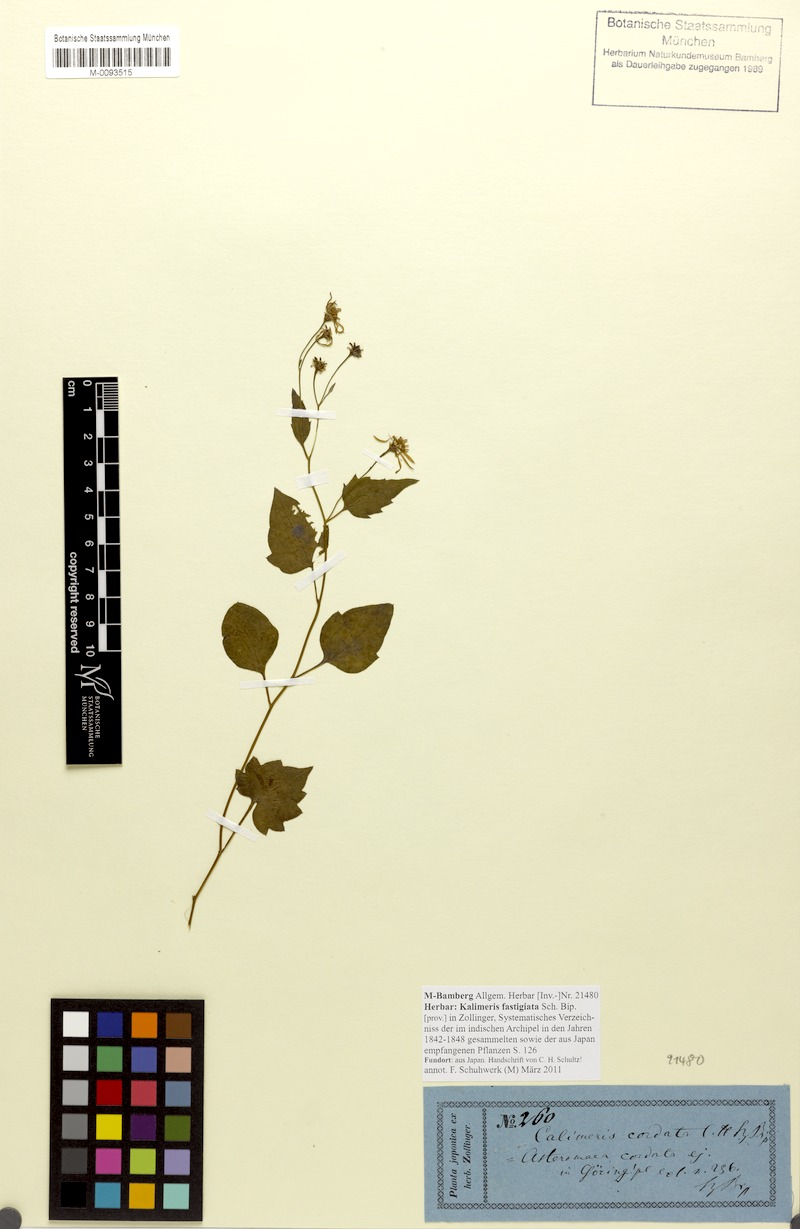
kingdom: Plantae
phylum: Tracheophyta
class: Magnoliopsida
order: Asterales
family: Asteraceae
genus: Turczaninovia
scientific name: Turczaninovia fastigiata
